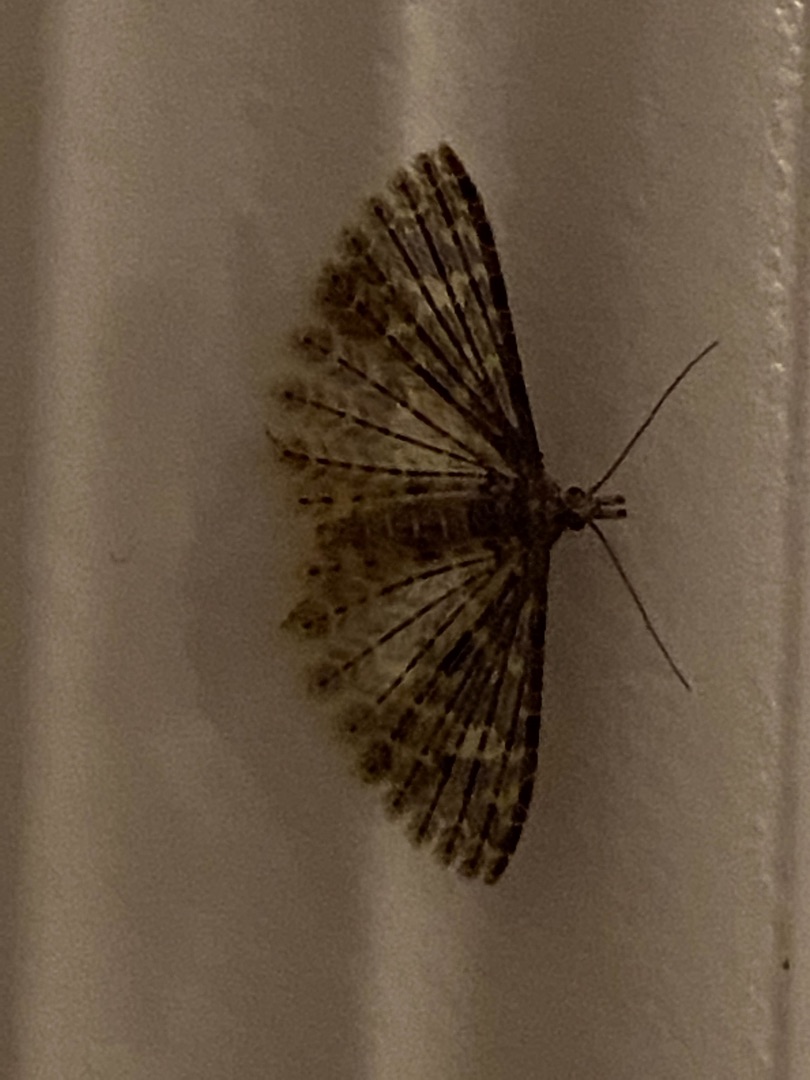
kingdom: Animalia
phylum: Arthropoda
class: Insecta
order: Lepidoptera
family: Alucitidae
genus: Alucita
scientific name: Alucita hexadactyla
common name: Kaprifoliefjermøl
